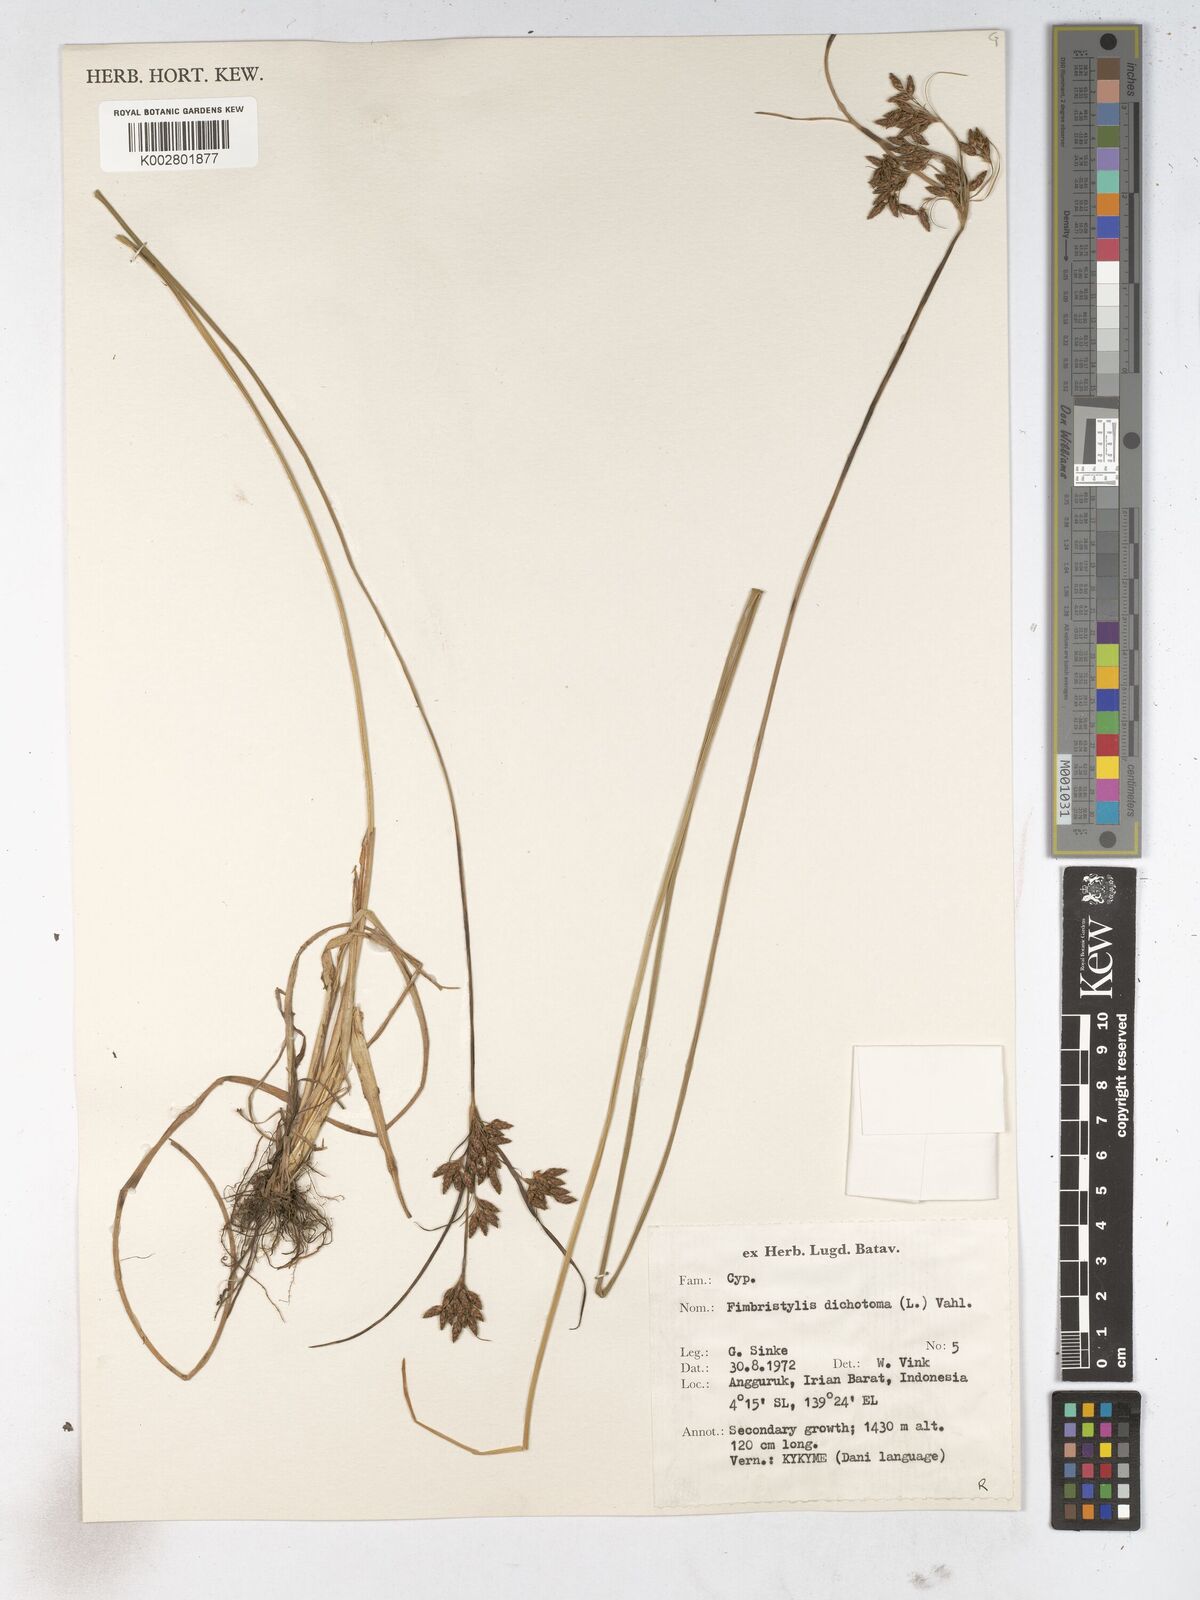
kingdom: Plantae
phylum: Tracheophyta
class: Liliopsida
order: Poales
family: Cyperaceae
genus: Fimbristylis
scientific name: Fimbristylis dichotoma
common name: Forked fimbry
